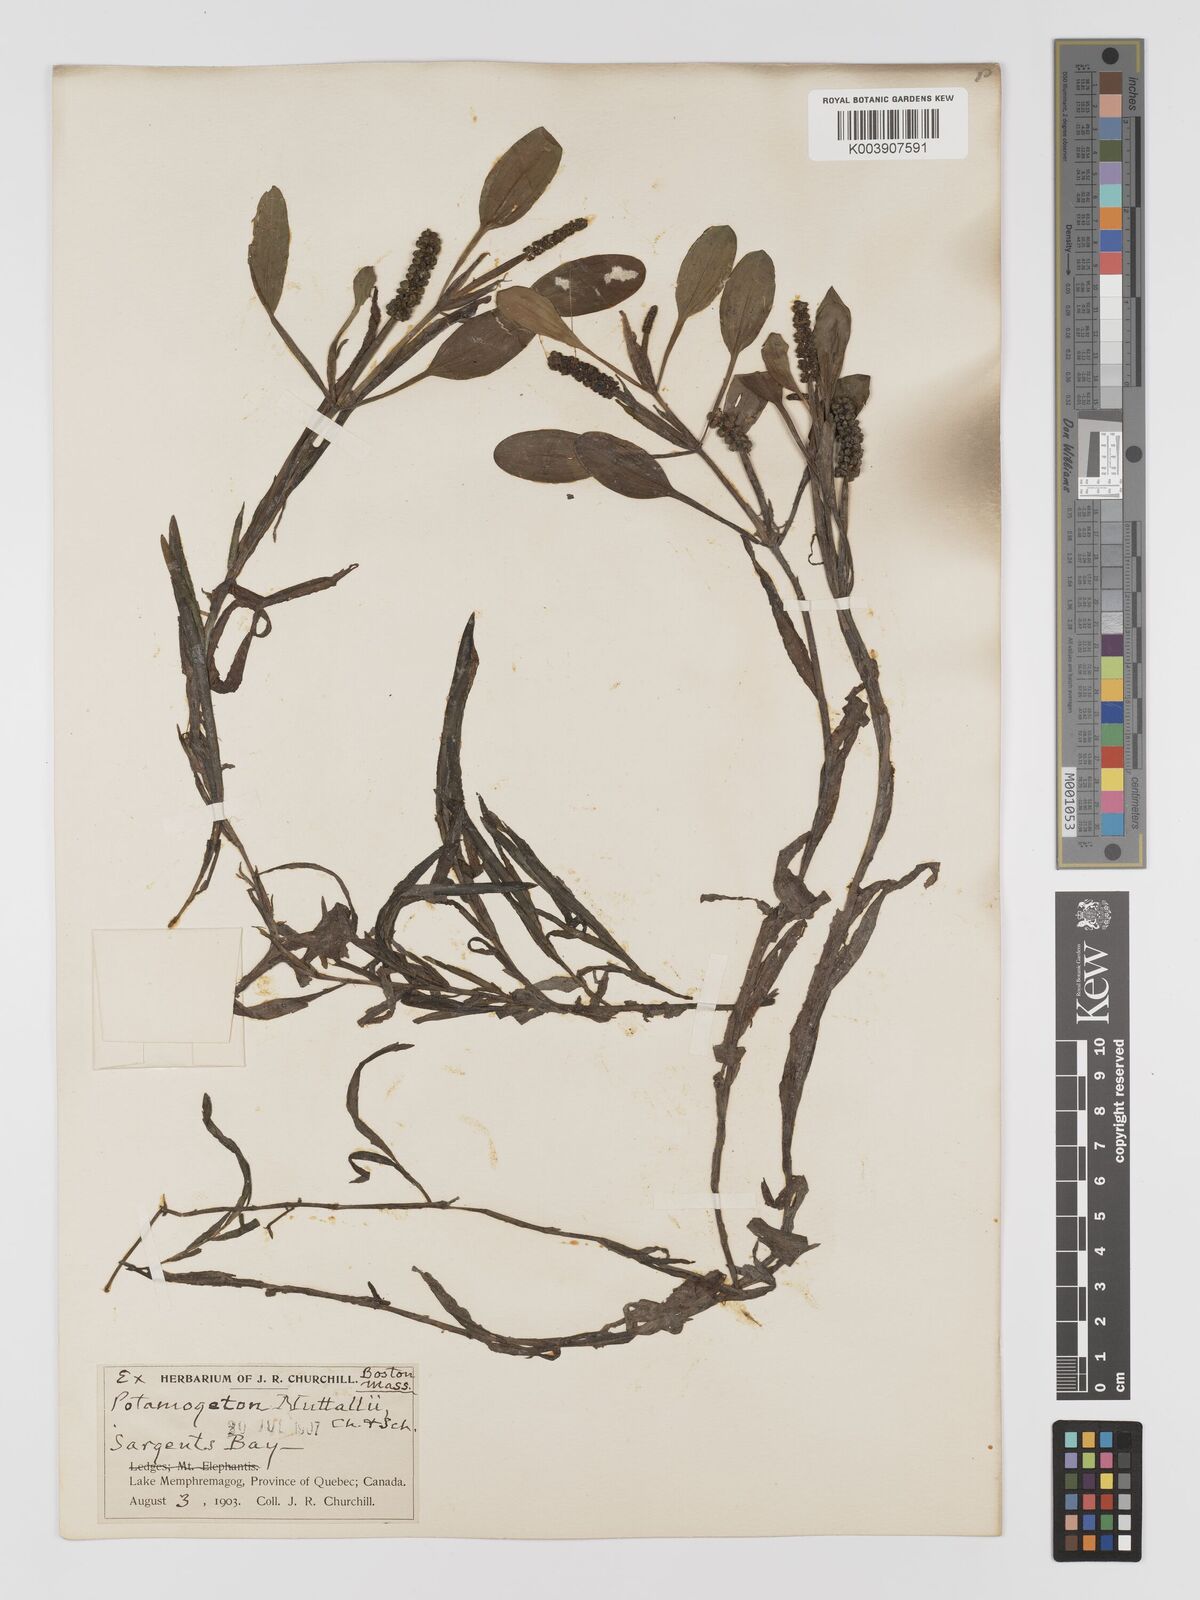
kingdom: Plantae
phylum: Tracheophyta
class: Liliopsida
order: Alismatales
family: Potamogetonaceae
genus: Potamogeton
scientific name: Potamogeton epihydrus
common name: American pondweed
